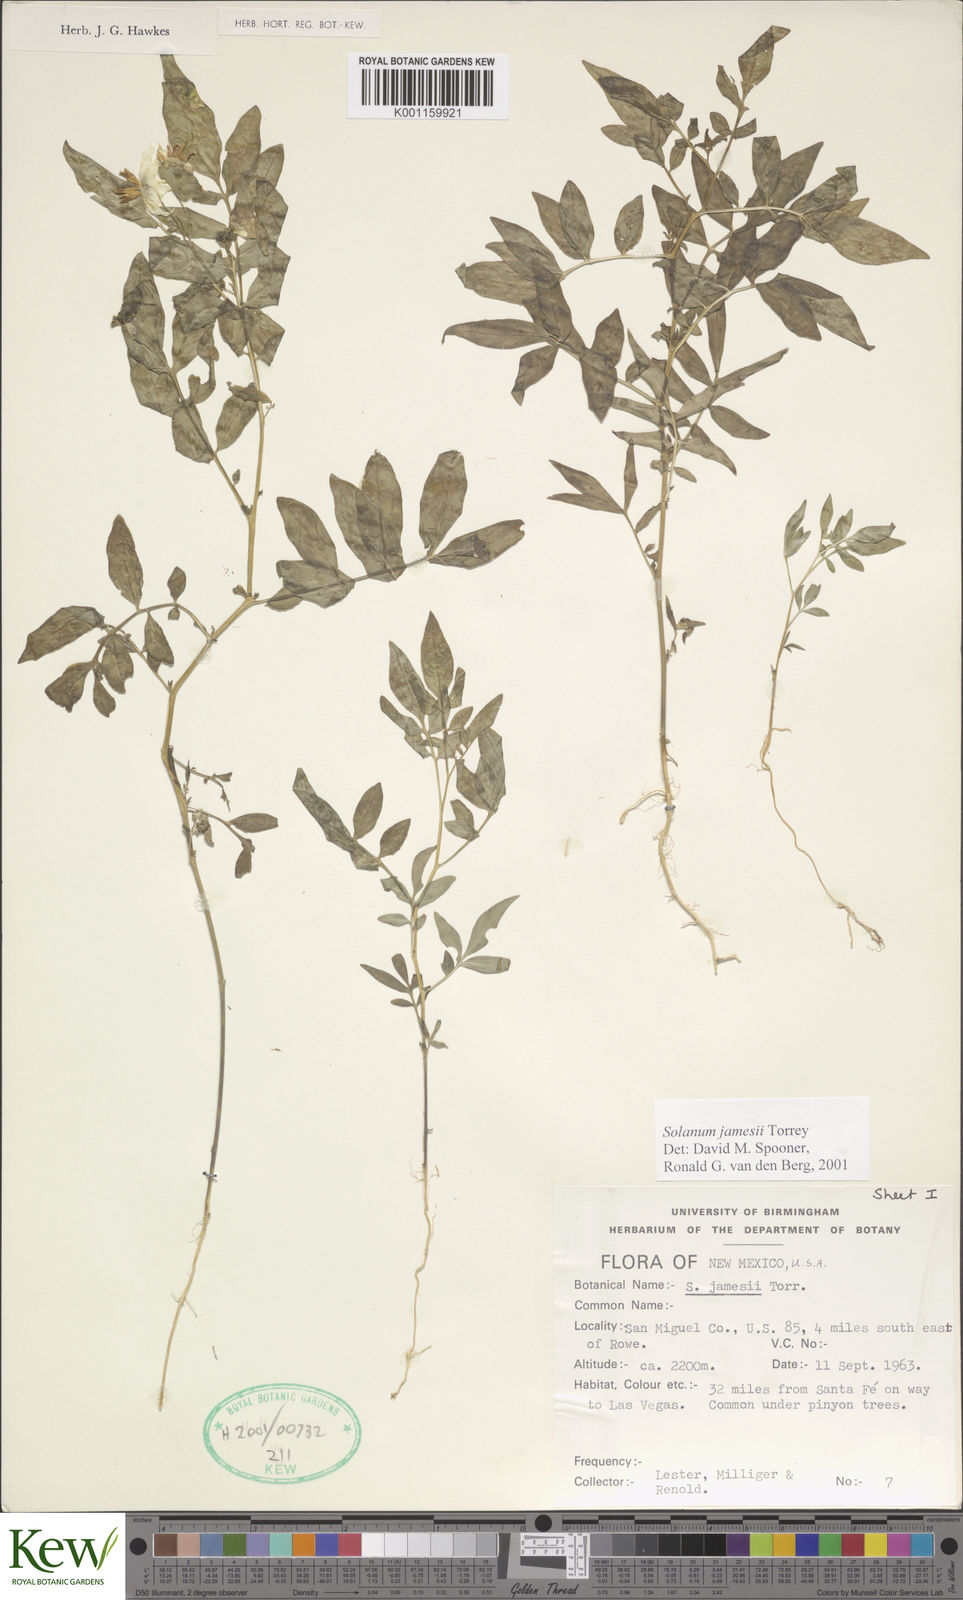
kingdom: Plantae
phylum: Tracheophyta
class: Magnoliopsida
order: Solanales
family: Solanaceae
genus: Solanum
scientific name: Solanum jamesii
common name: Wild potato
